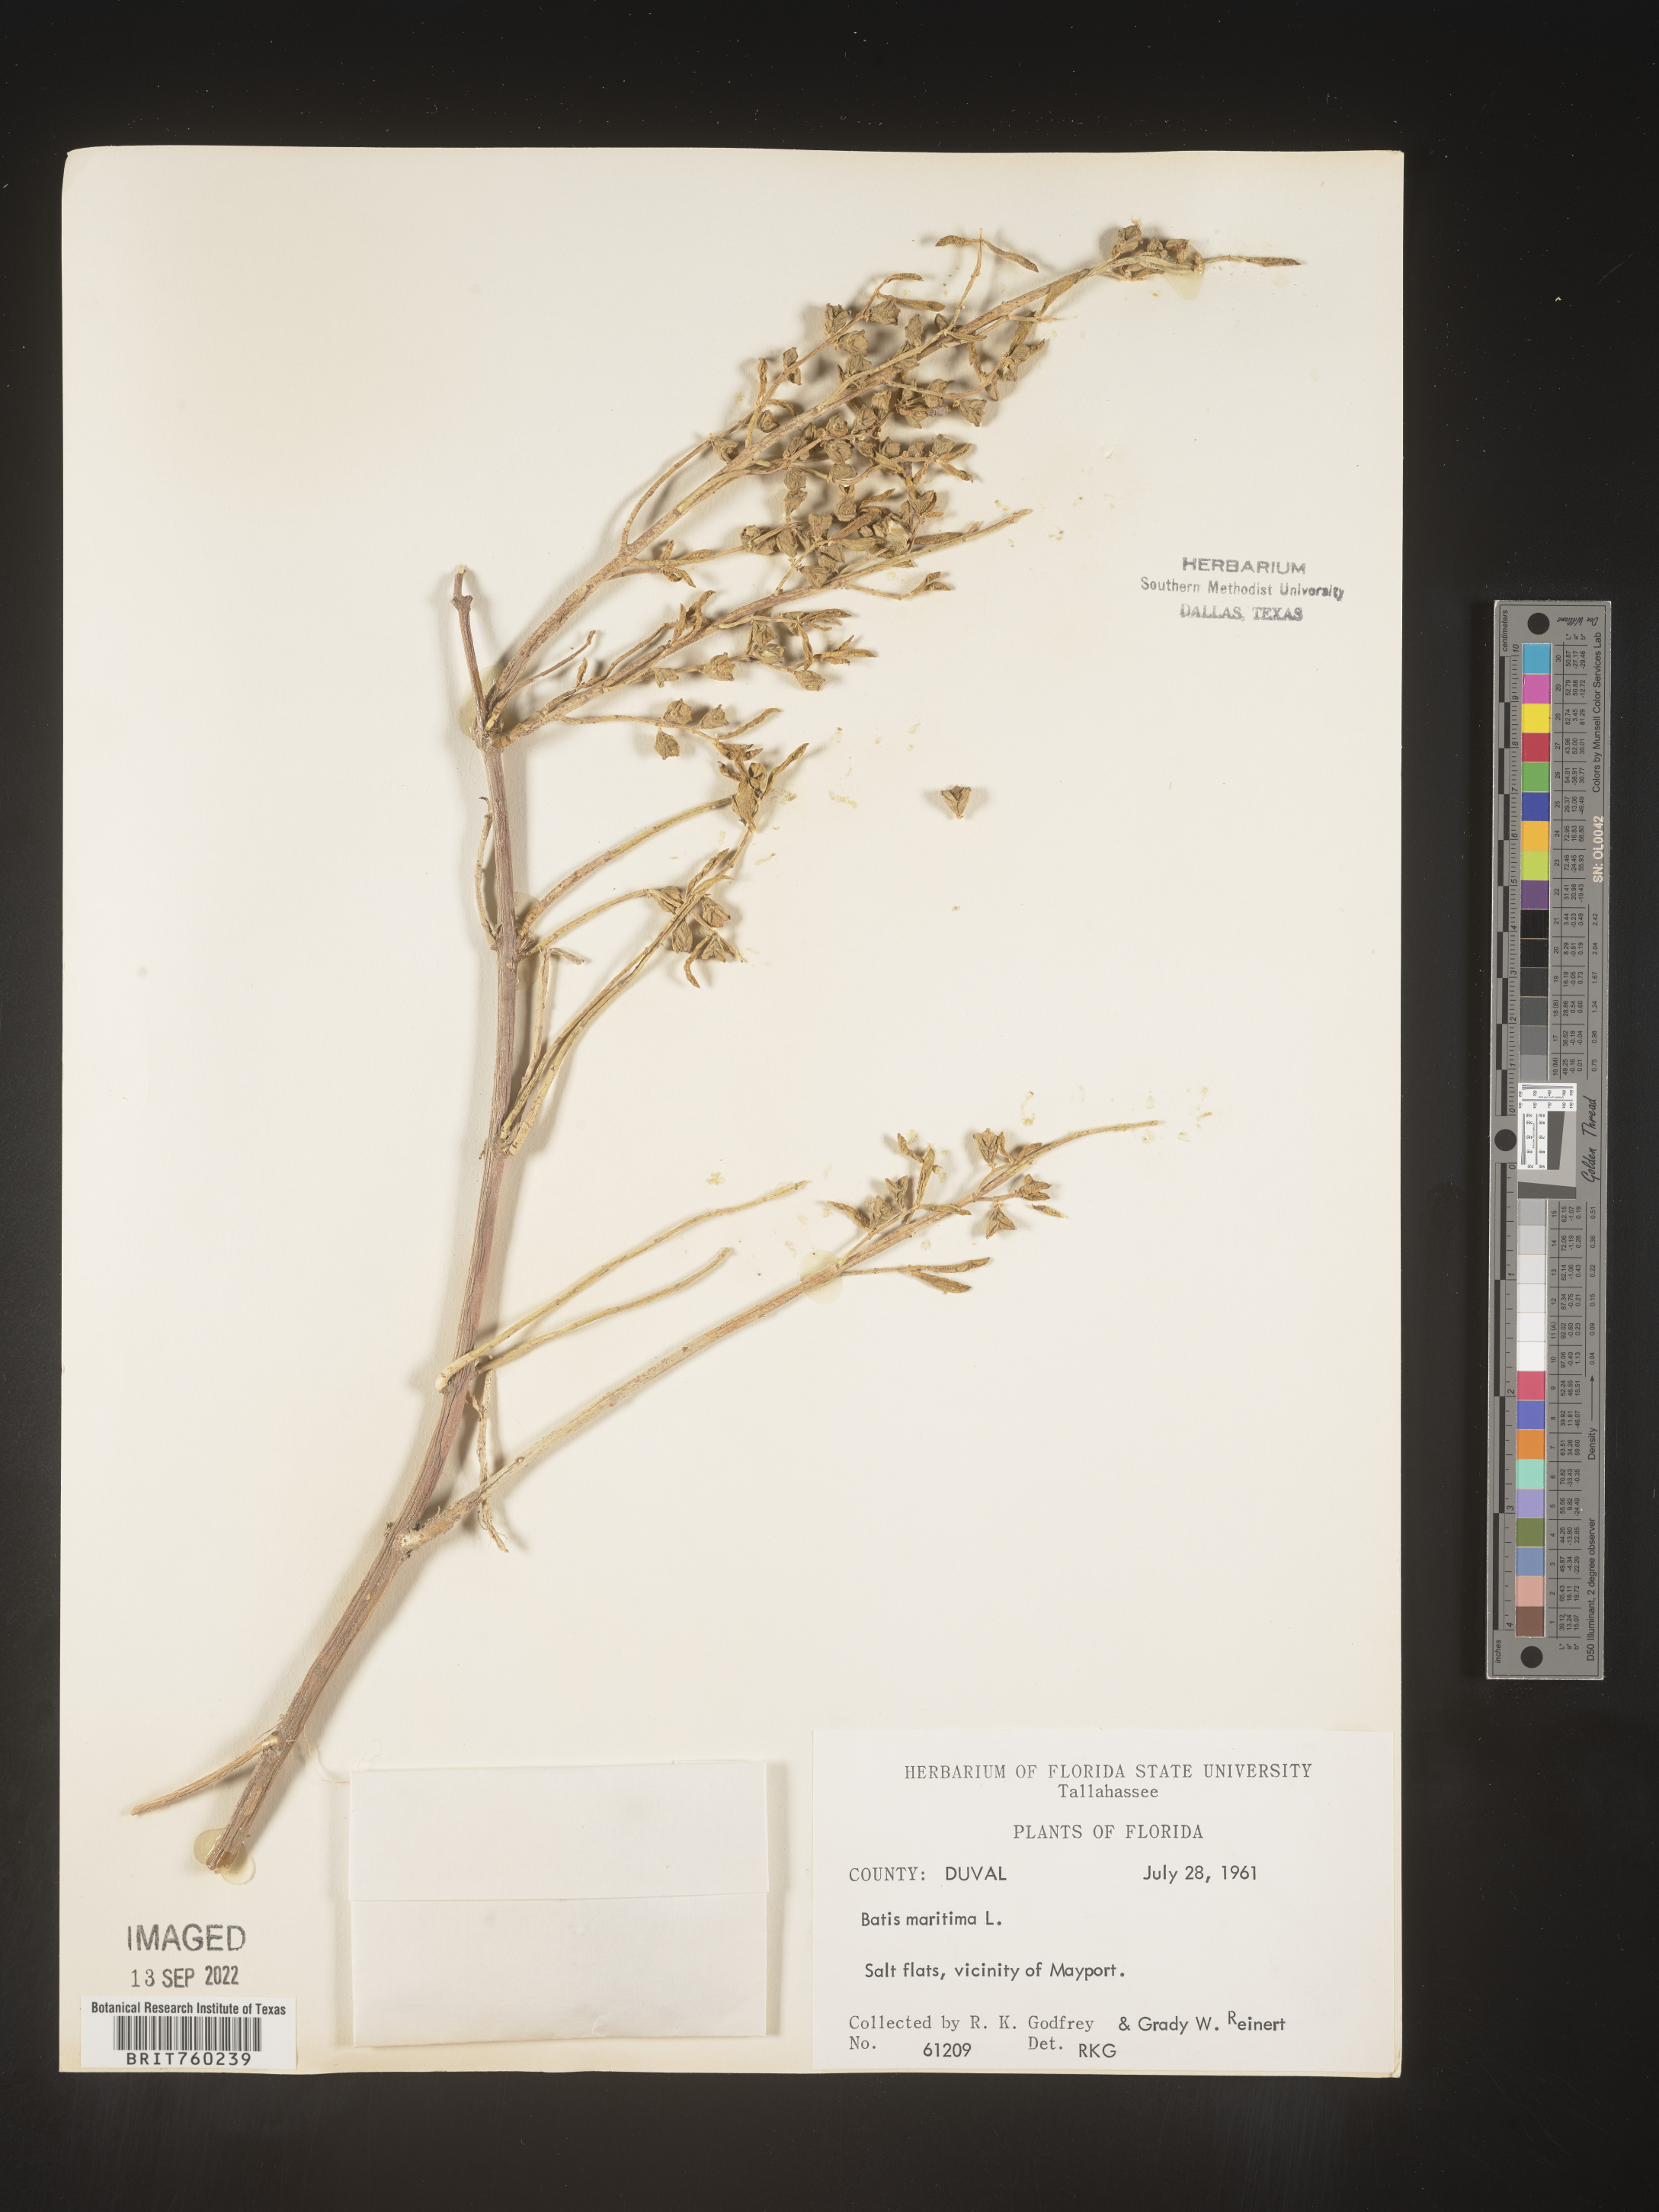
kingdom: Plantae
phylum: Tracheophyta
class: Magnoliopsida
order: Brassicales
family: Bataceae
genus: Batis
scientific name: Batis maritima
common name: Turtleweed
